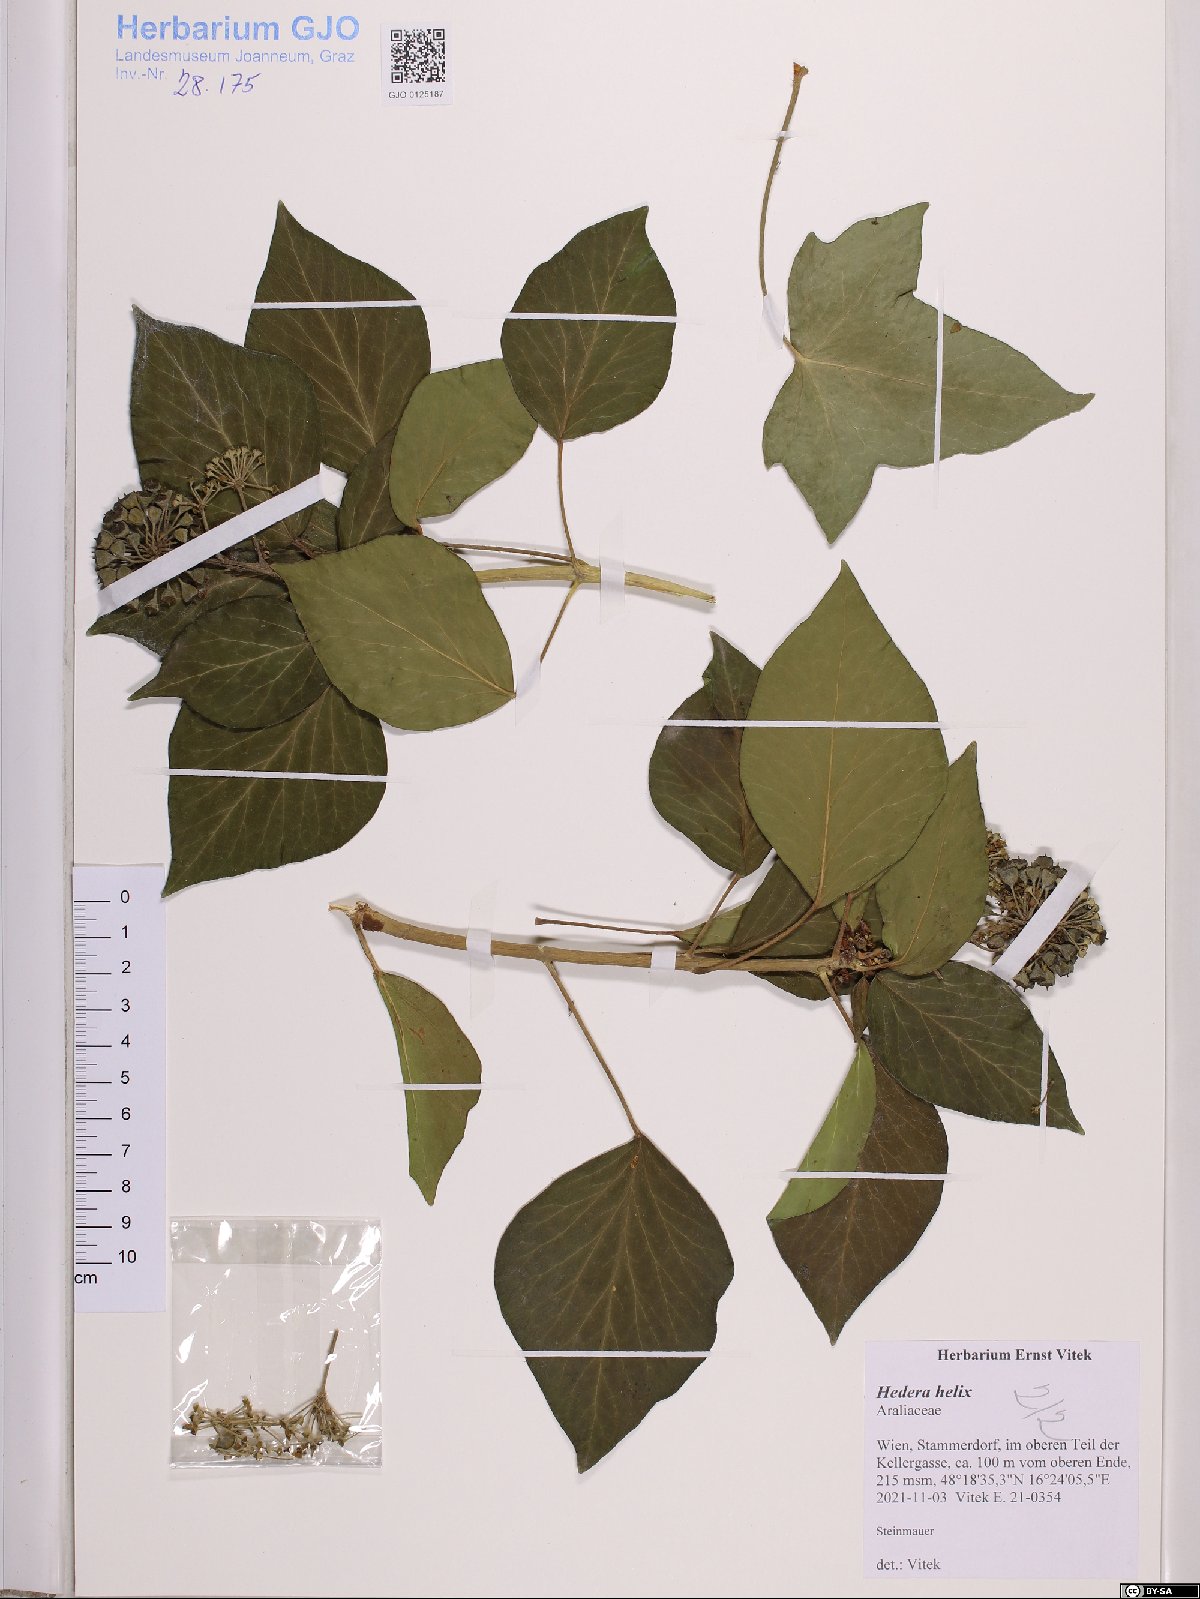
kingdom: Plantae
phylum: Tracheophyta
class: Magnoliopsida
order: Apiales
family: Araliaceae
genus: Hedera
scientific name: Hedera helix
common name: Ivy
